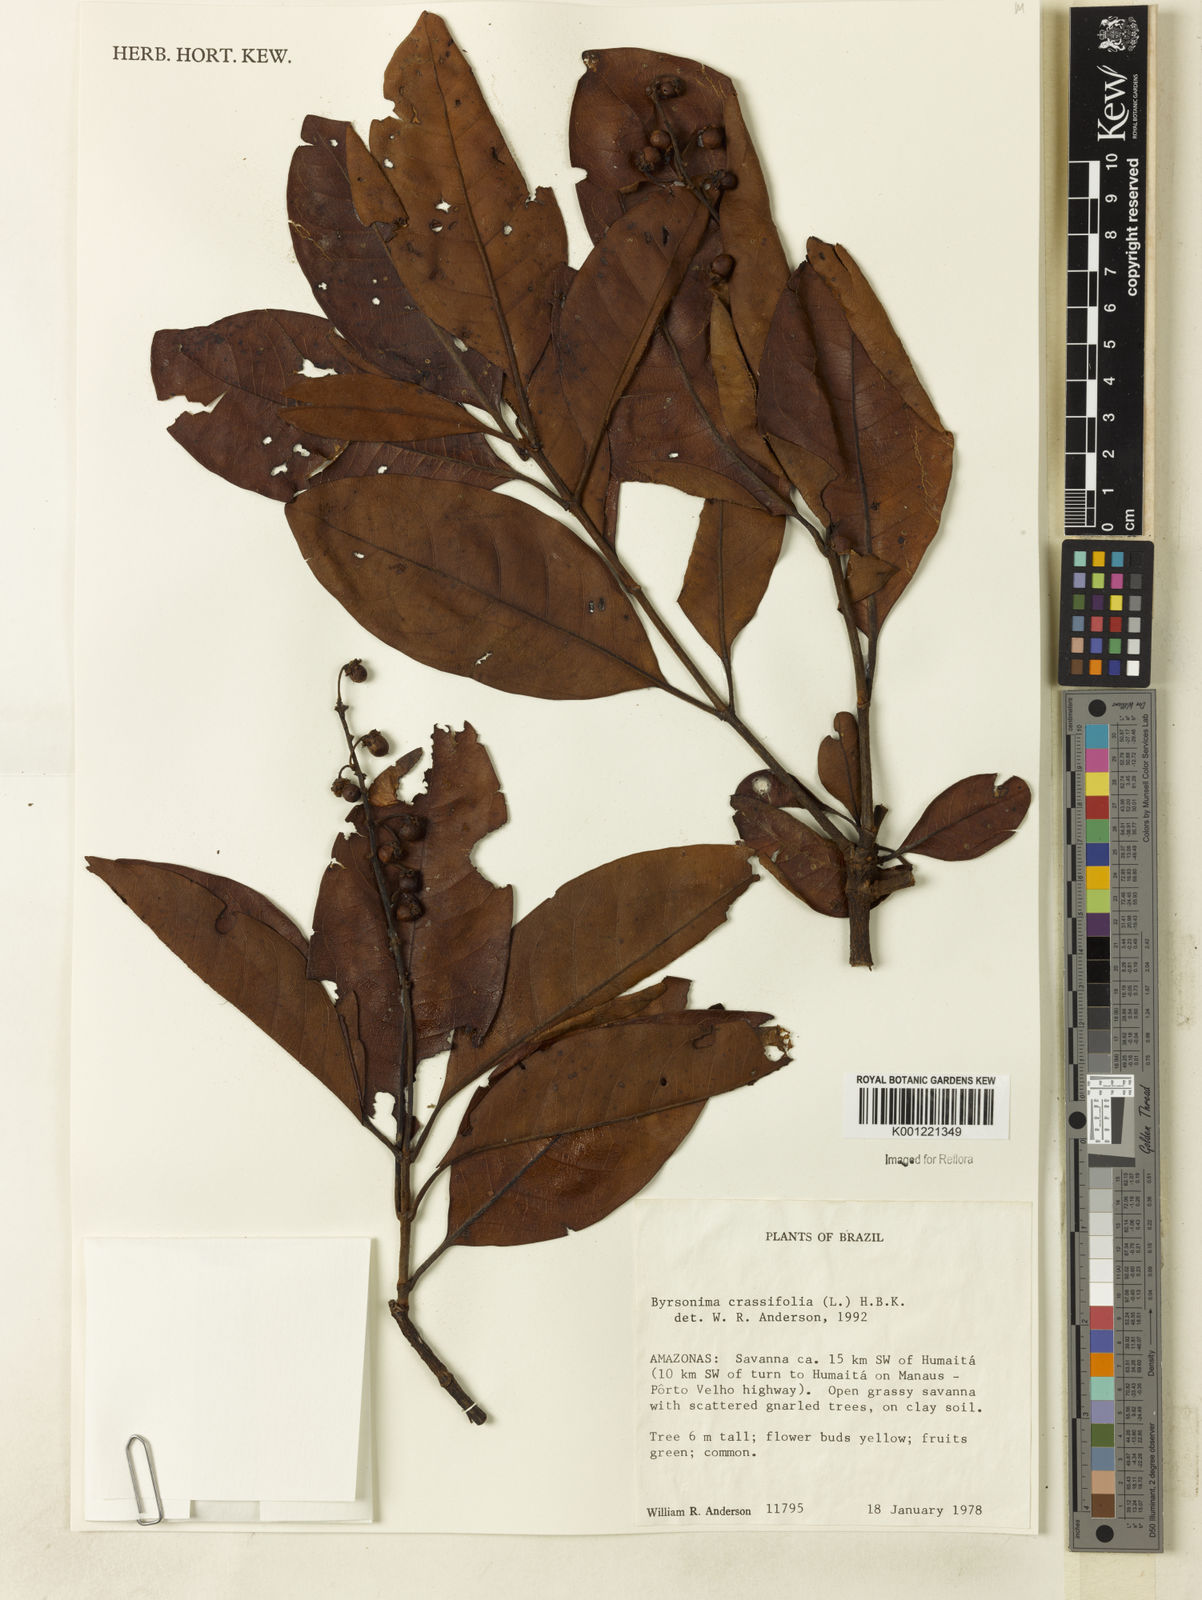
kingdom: Plantae
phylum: Tracheophyta
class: Magnoliopsida
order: Malpighiales
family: Malpighiaceae
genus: Byrsonima
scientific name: Byrsonima crassifolia
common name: Golden spoon
